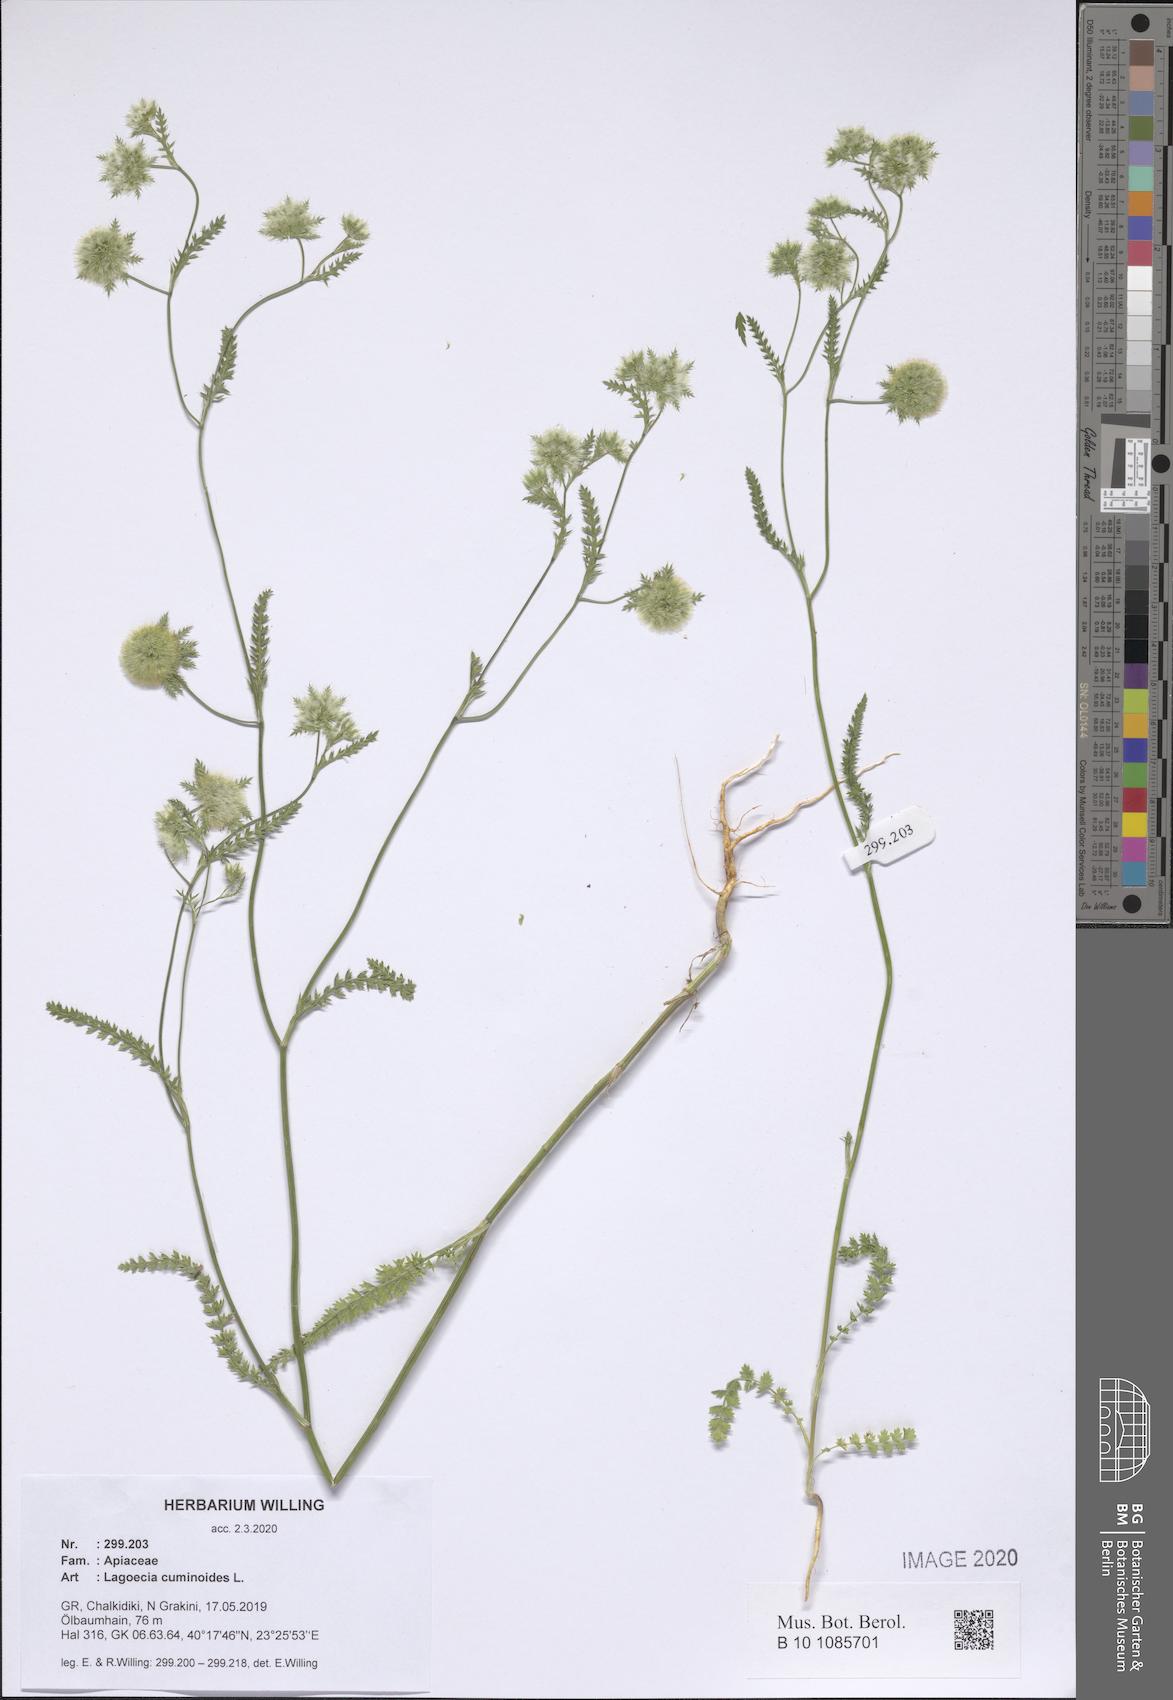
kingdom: Plantae
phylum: Tracheophyta
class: Magnoliopsida
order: Apiales
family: Apiaceae
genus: Lagoecia
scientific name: Lagoecia cuminoides
